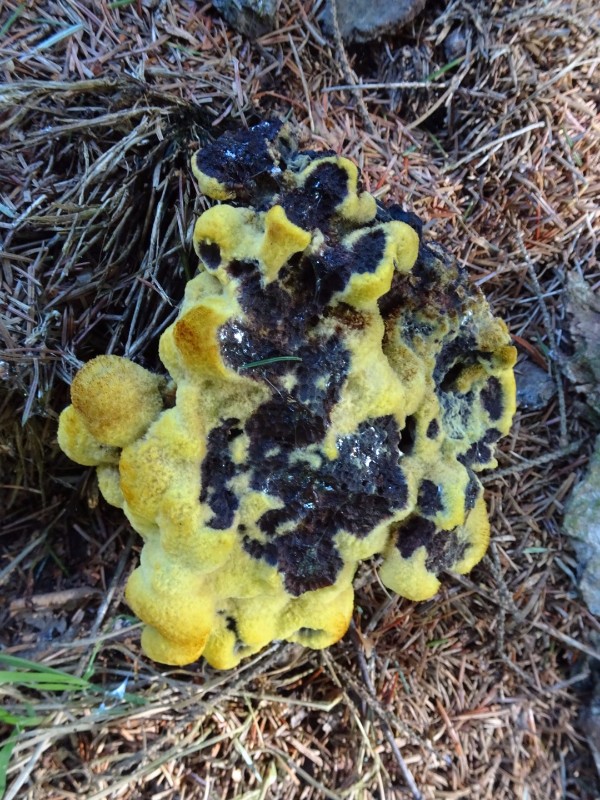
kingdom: Fungi
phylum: Basidiomycota
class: Agaricomycetes
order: Polyporales
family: Laetiporaceae
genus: Phaeolus
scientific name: Phaeolus schweinitzii
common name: brunporesvamp
